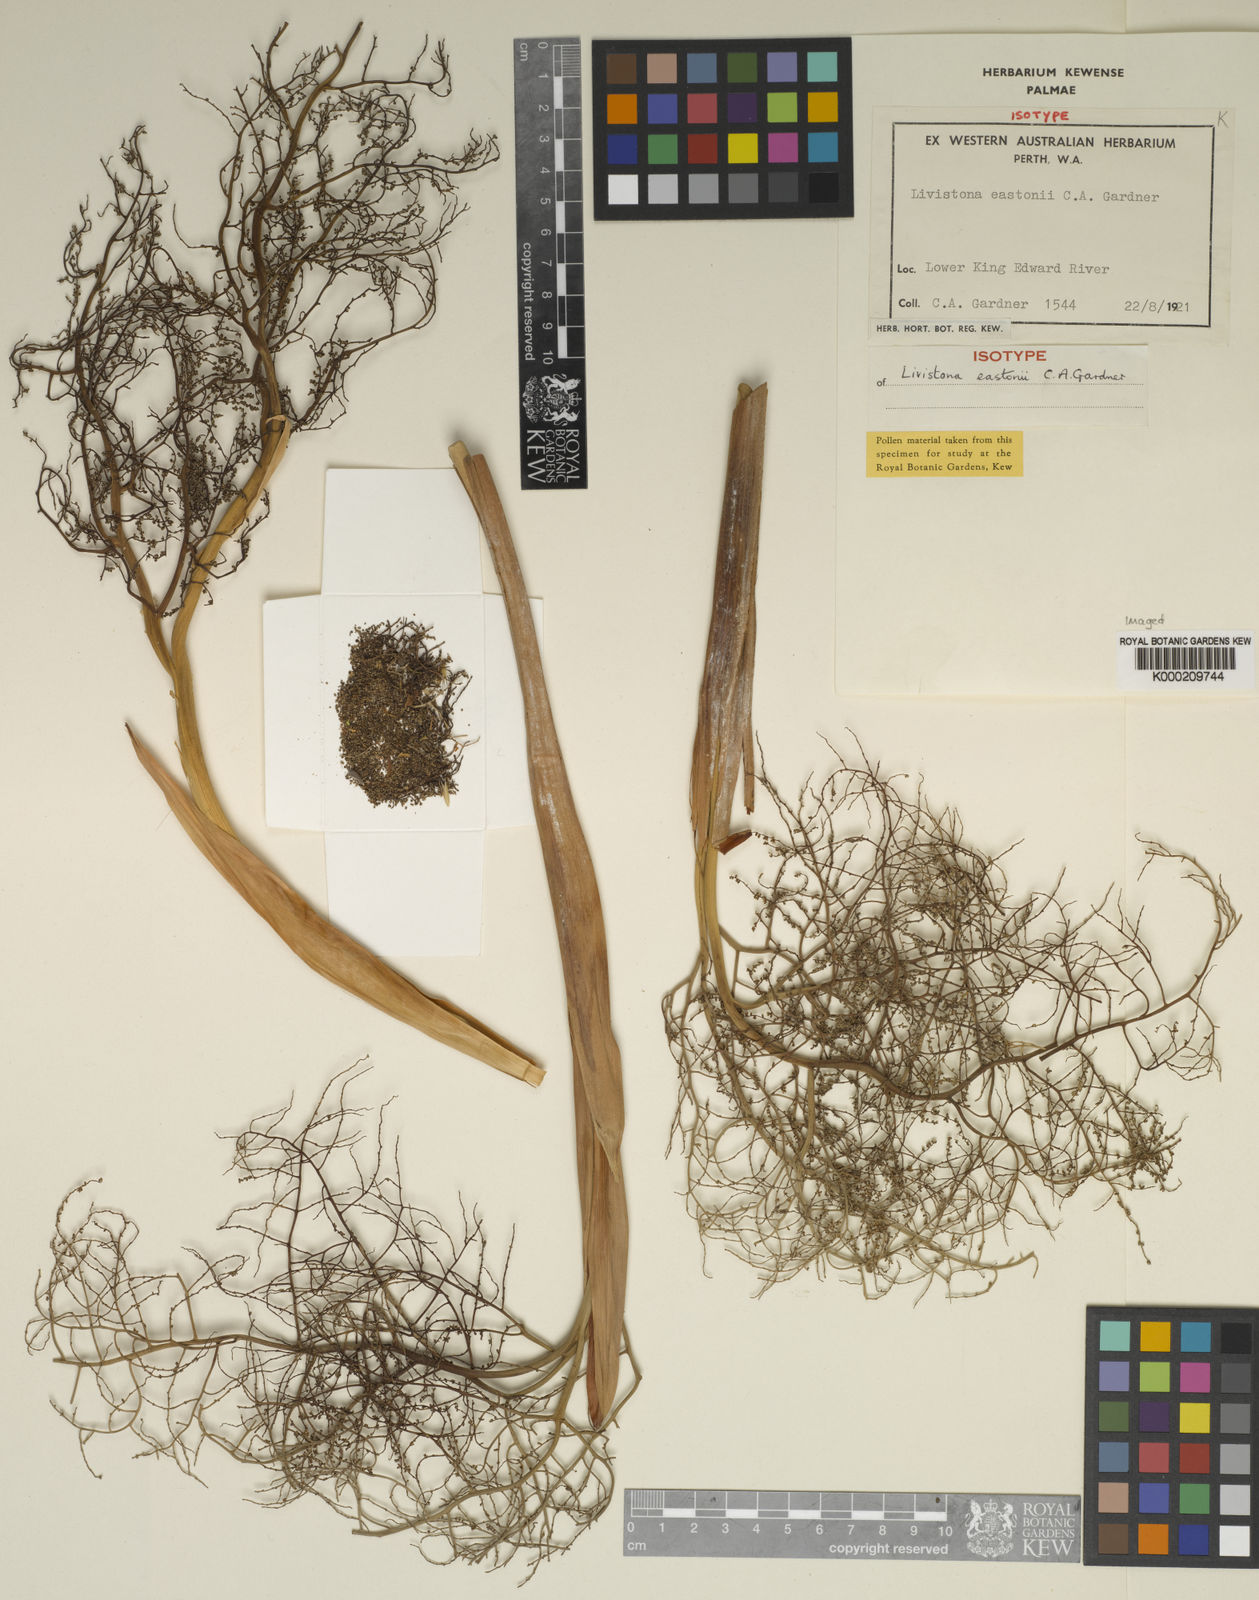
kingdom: Plantae
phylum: Tracheophyta
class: Liliopsida
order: Arecales
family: Arecaceae
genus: Livistona
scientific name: Livistona eastonii
